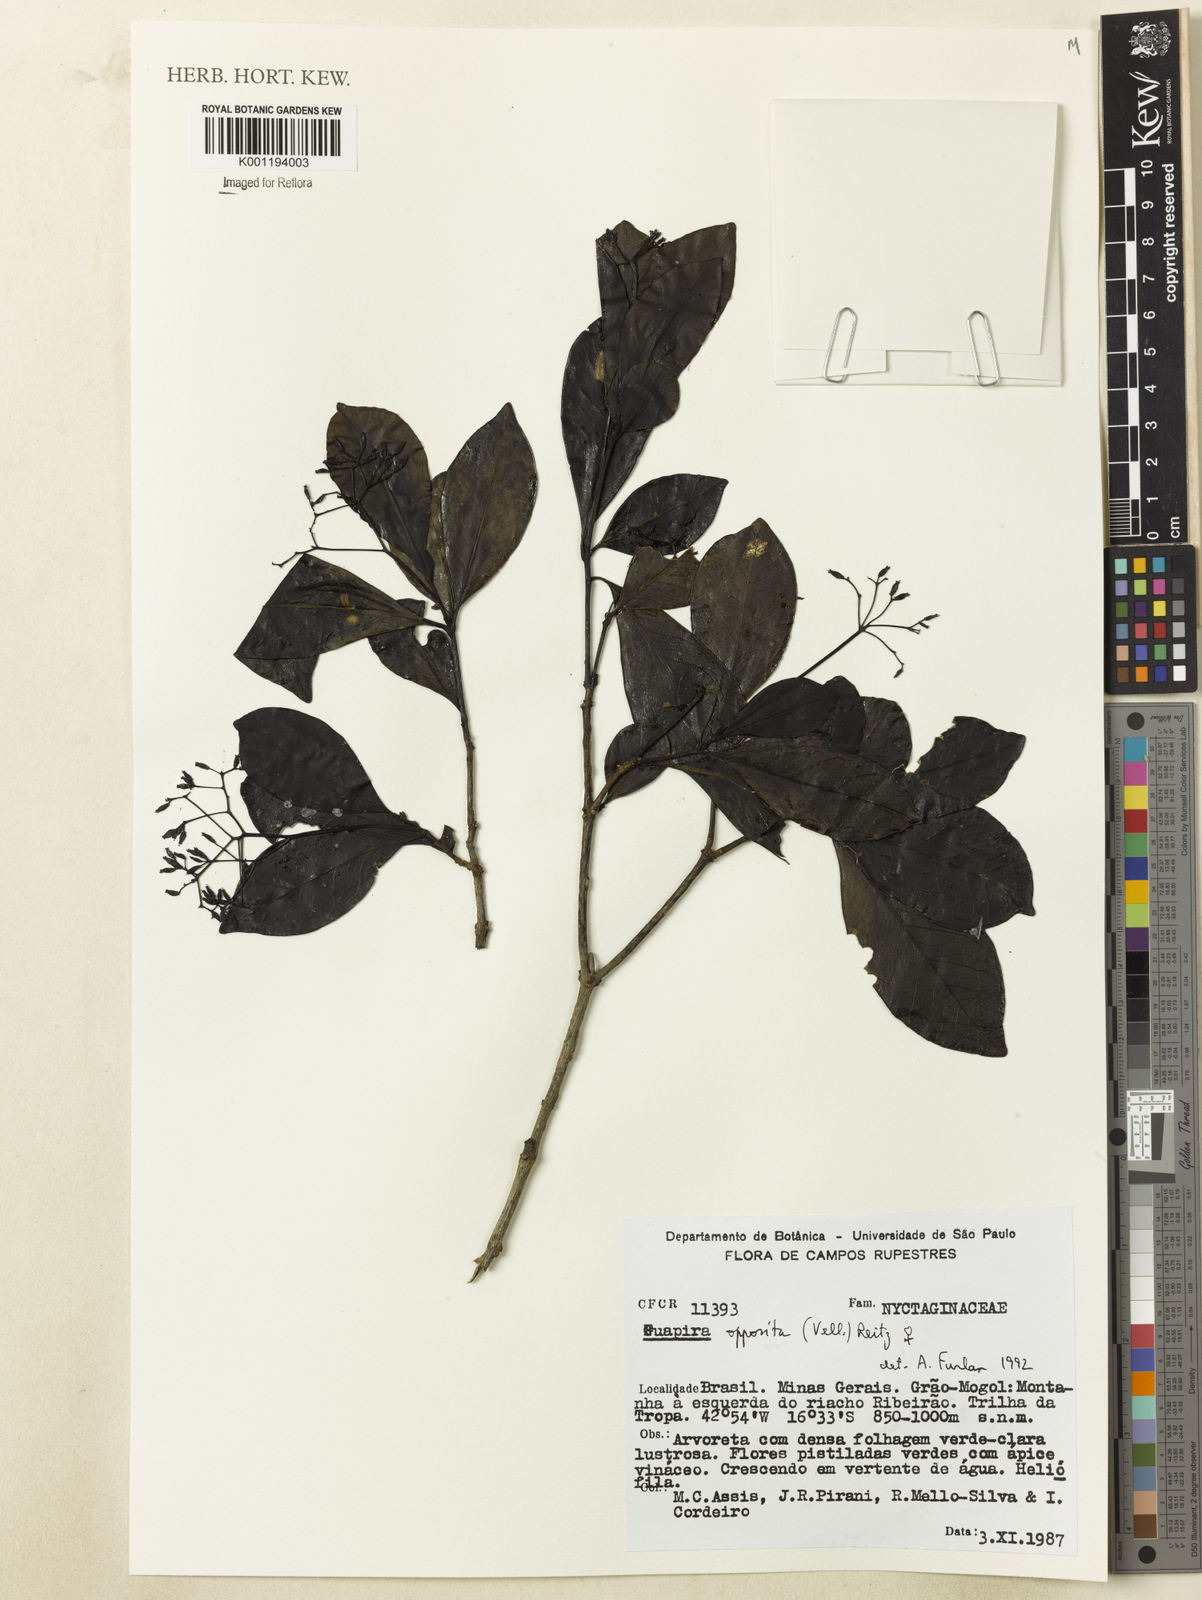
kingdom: Plantae
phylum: Tracheophyta
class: Magnoliopsida
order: Caryophyllales
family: Nyctaginaceae
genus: Guapira
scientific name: Guapira opposita
